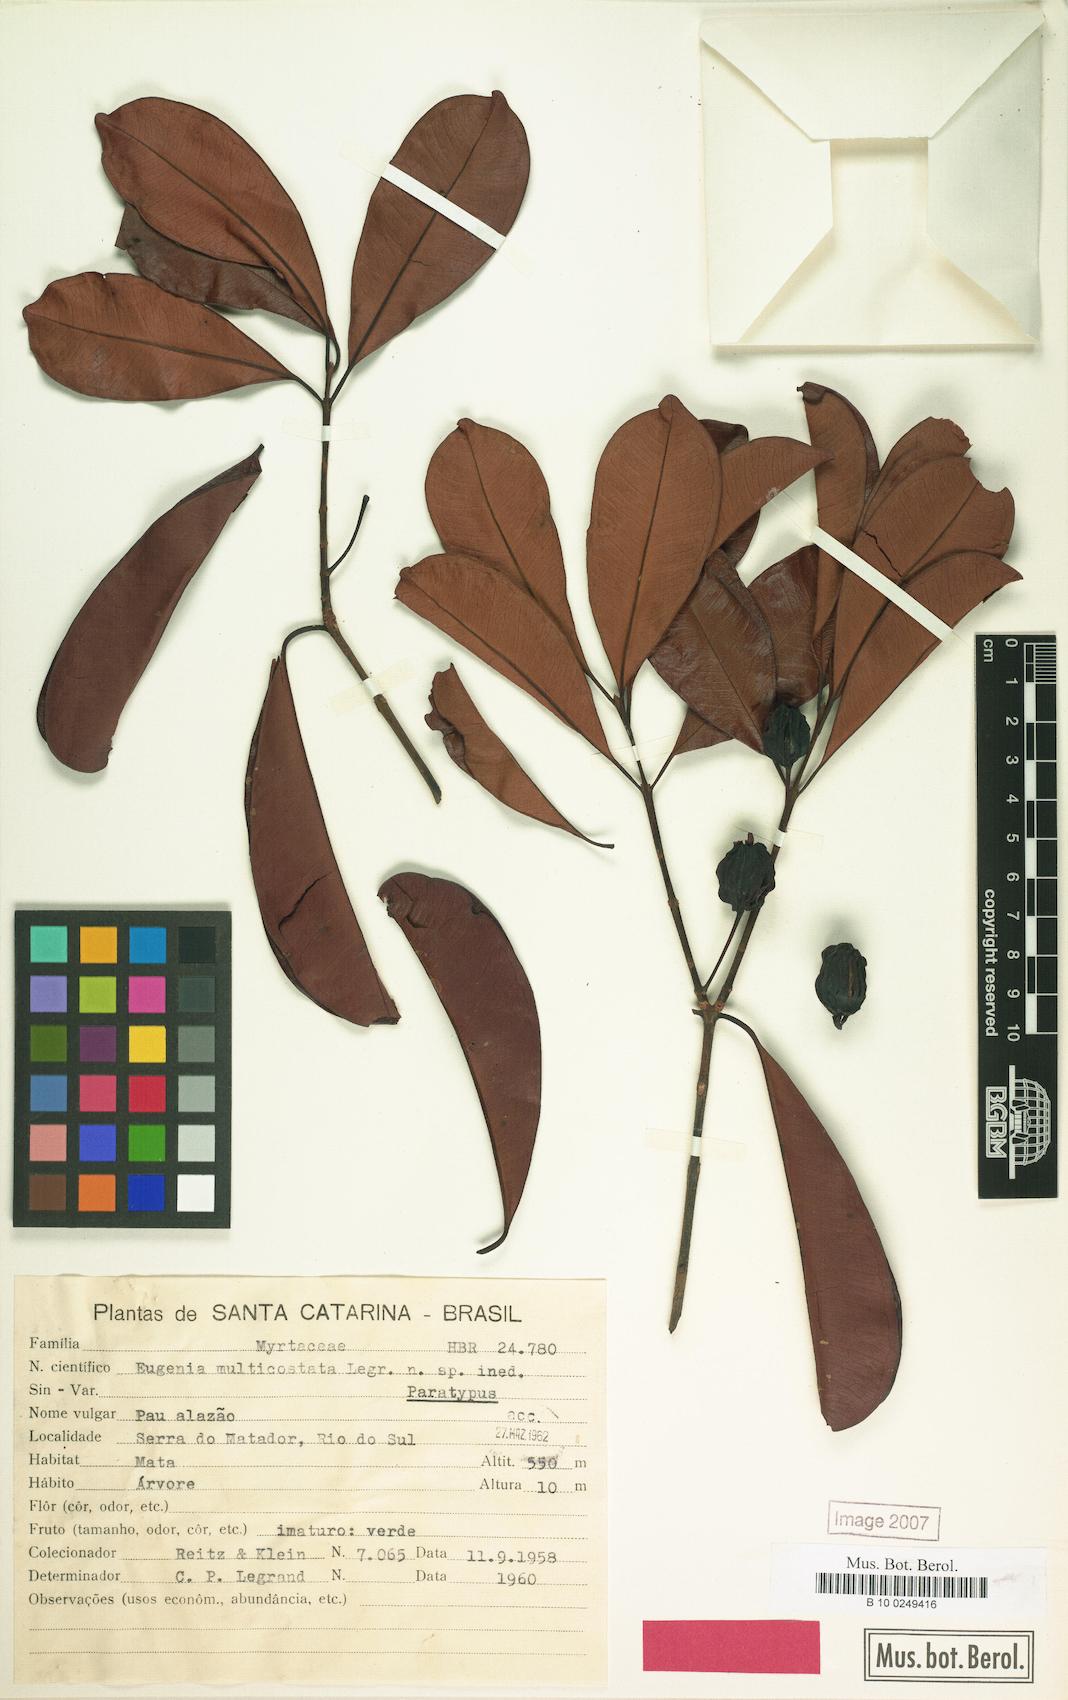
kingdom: Plantae
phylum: Tracheophyta
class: Magnoliopsida
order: Myrtales
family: Myrtaceae
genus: Eugenia
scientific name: Eugenia multicostata
